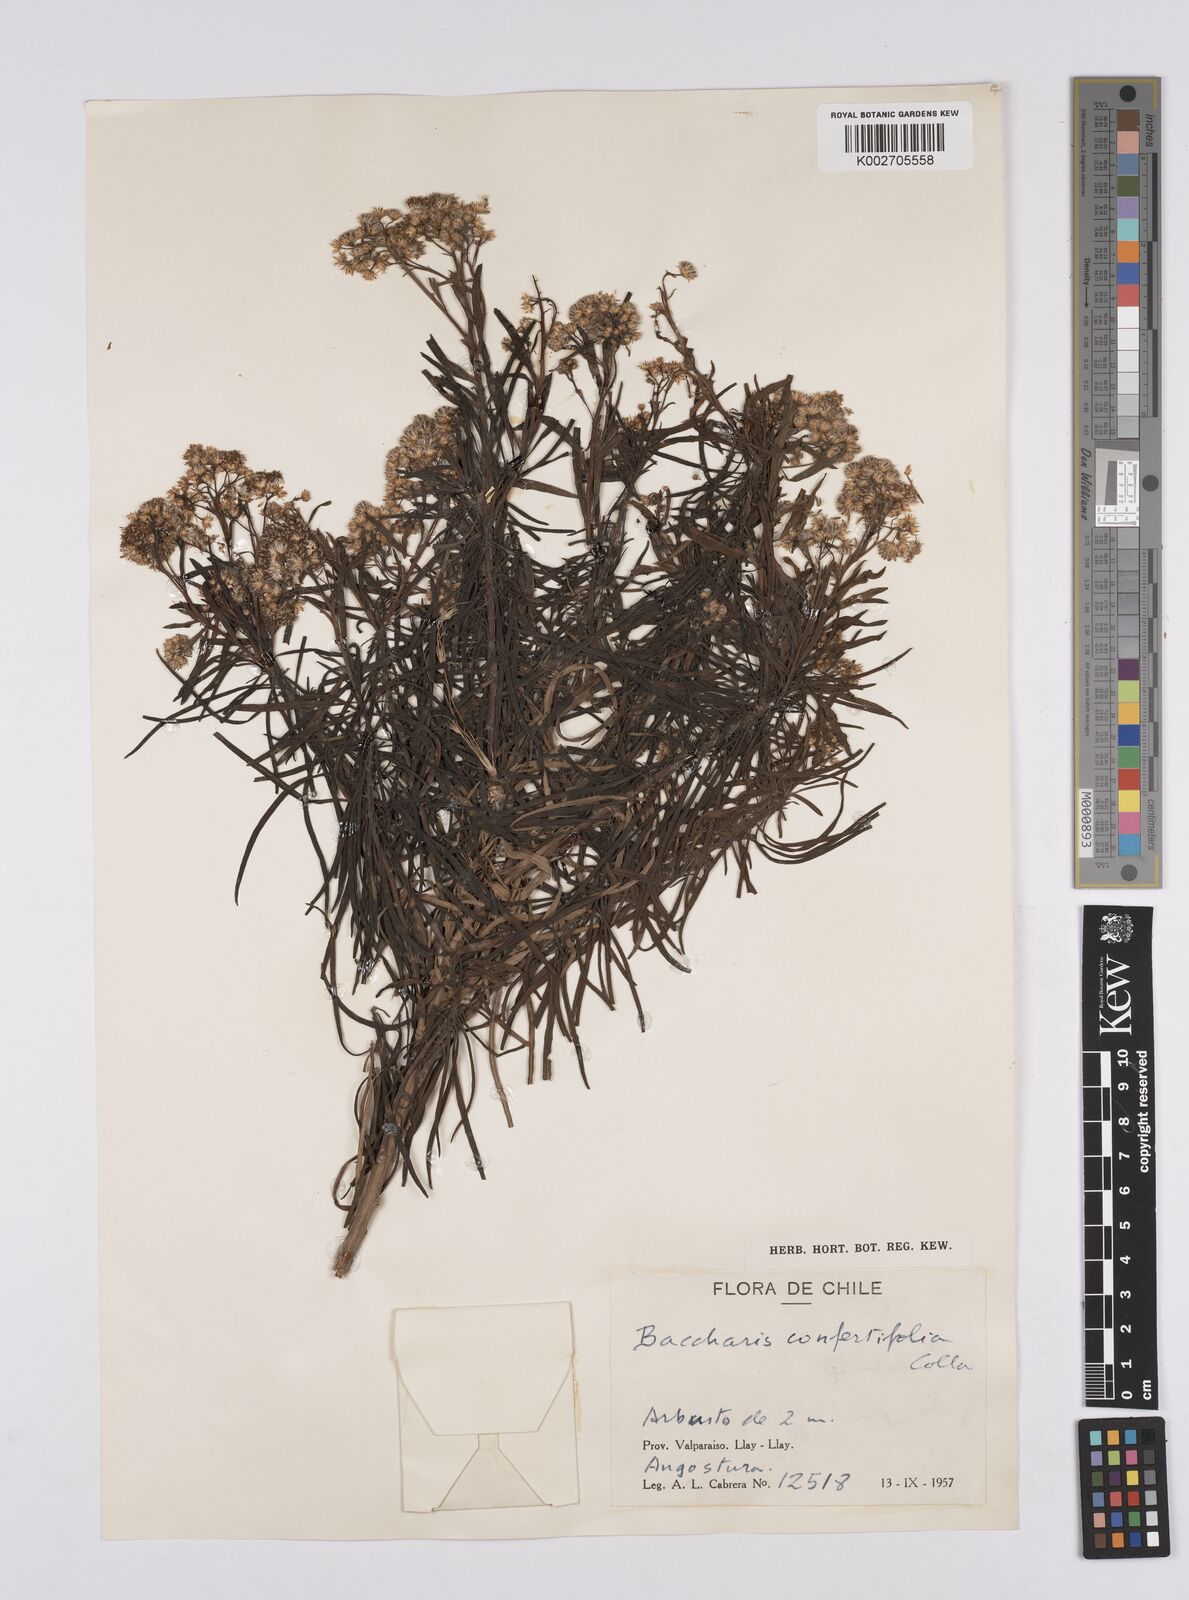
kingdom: Plantae
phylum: Tracheophyta
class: Magnoliopsida
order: Asterales
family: Asteraceae
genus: Baccharis
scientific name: Baccharis salicifolia
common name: Sticky baccharis
